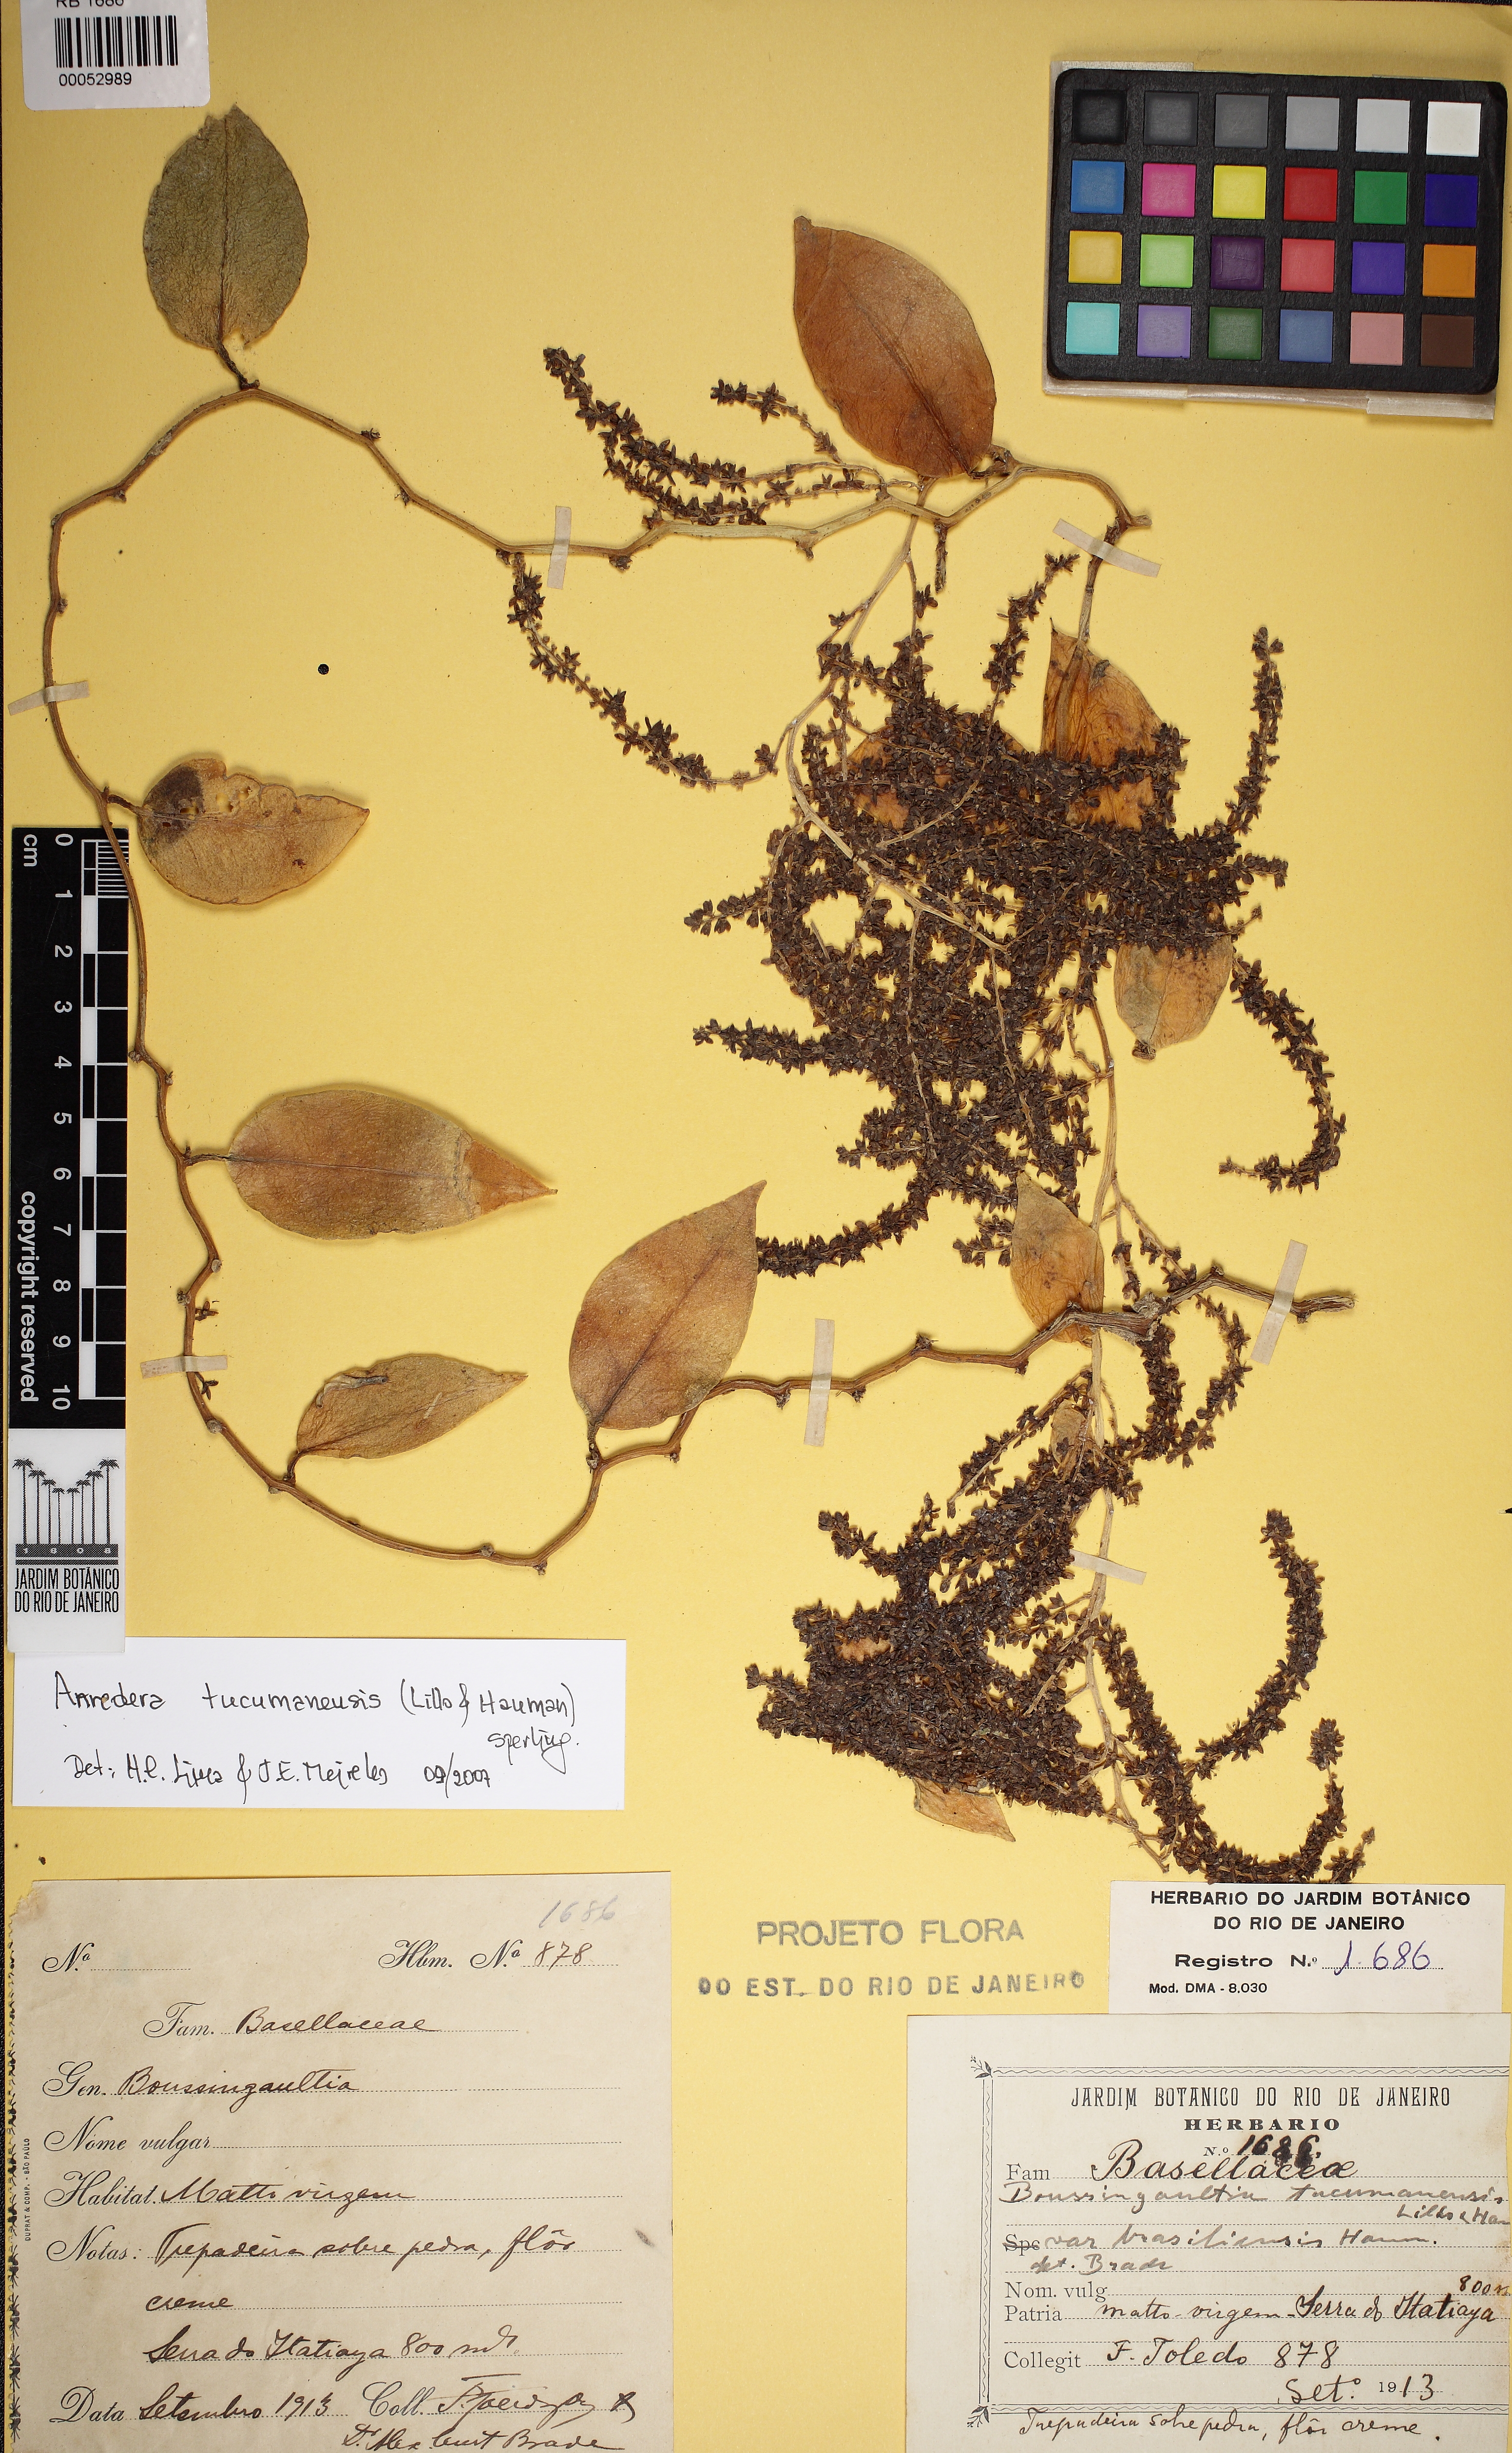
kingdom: Plantae
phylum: Tracheophyta
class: Magnoliopsida
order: Caryophyllales
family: Basellaceae
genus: Anredera
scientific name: Anredera tucumanensis
